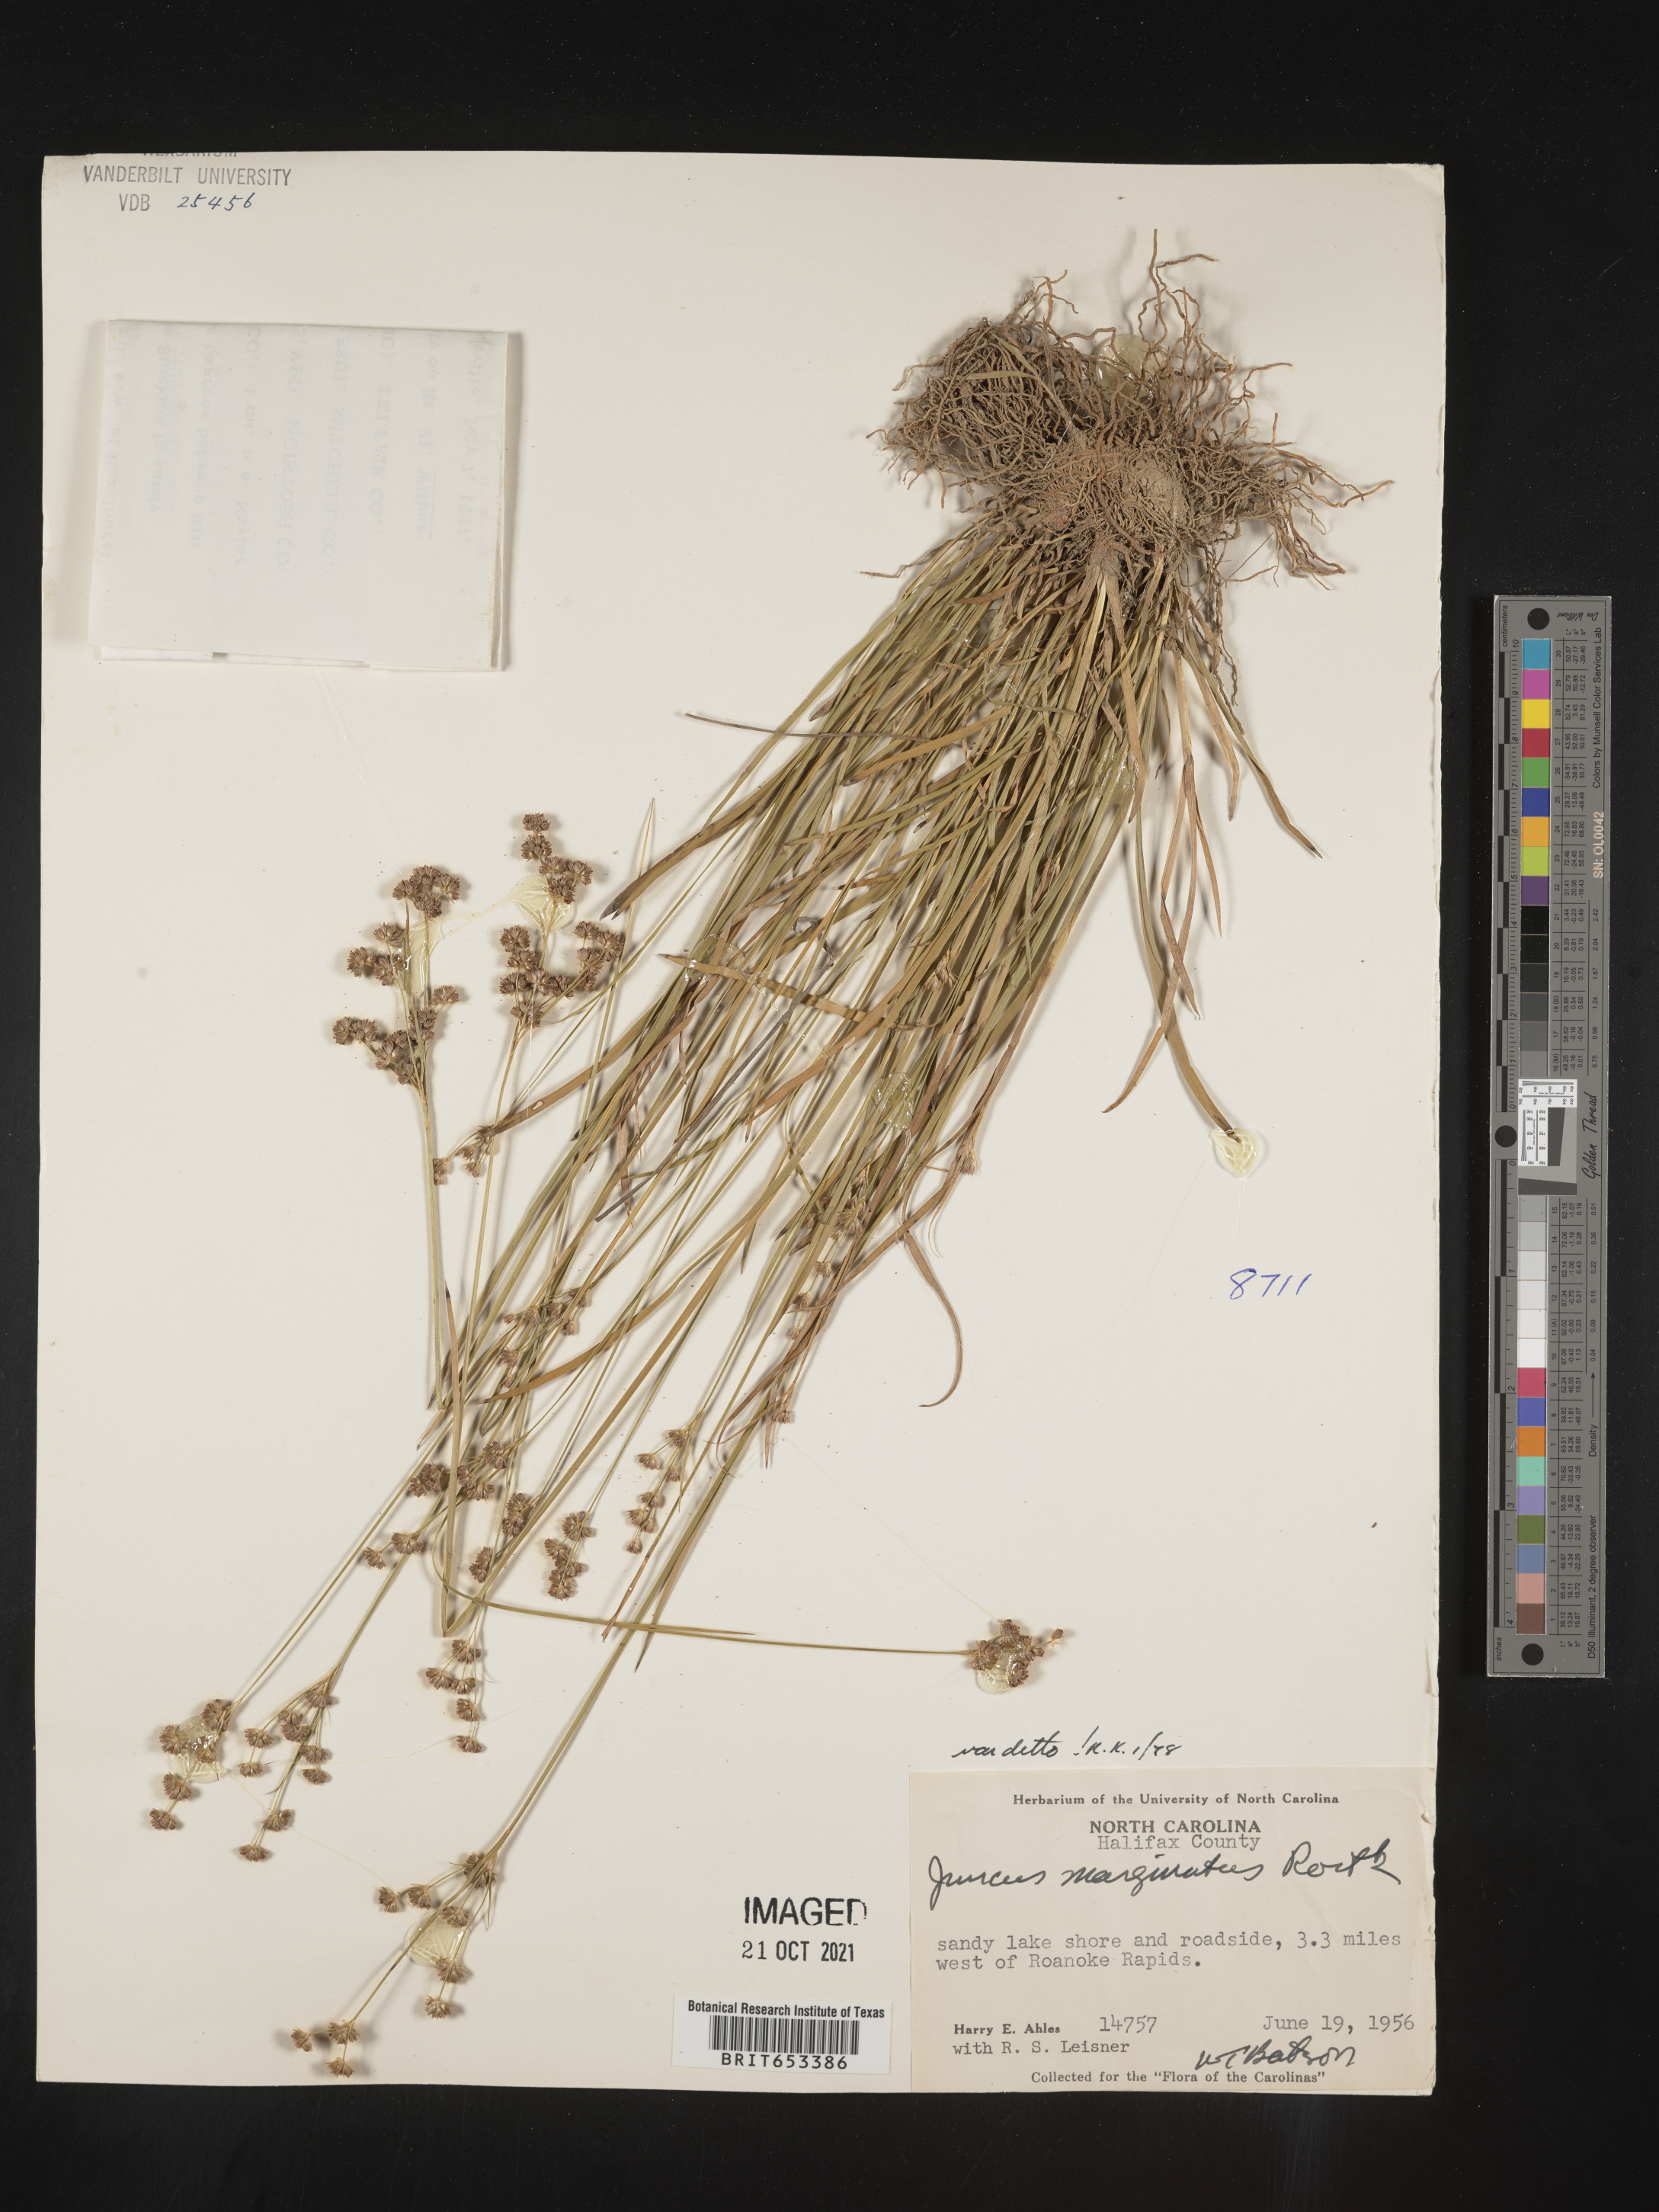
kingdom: Plantae
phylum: Tracheophyta
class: Liliopsida
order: Poales
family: Juncaceae
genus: Juncus
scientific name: Juncus marginatus
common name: Grass-leaf rush
